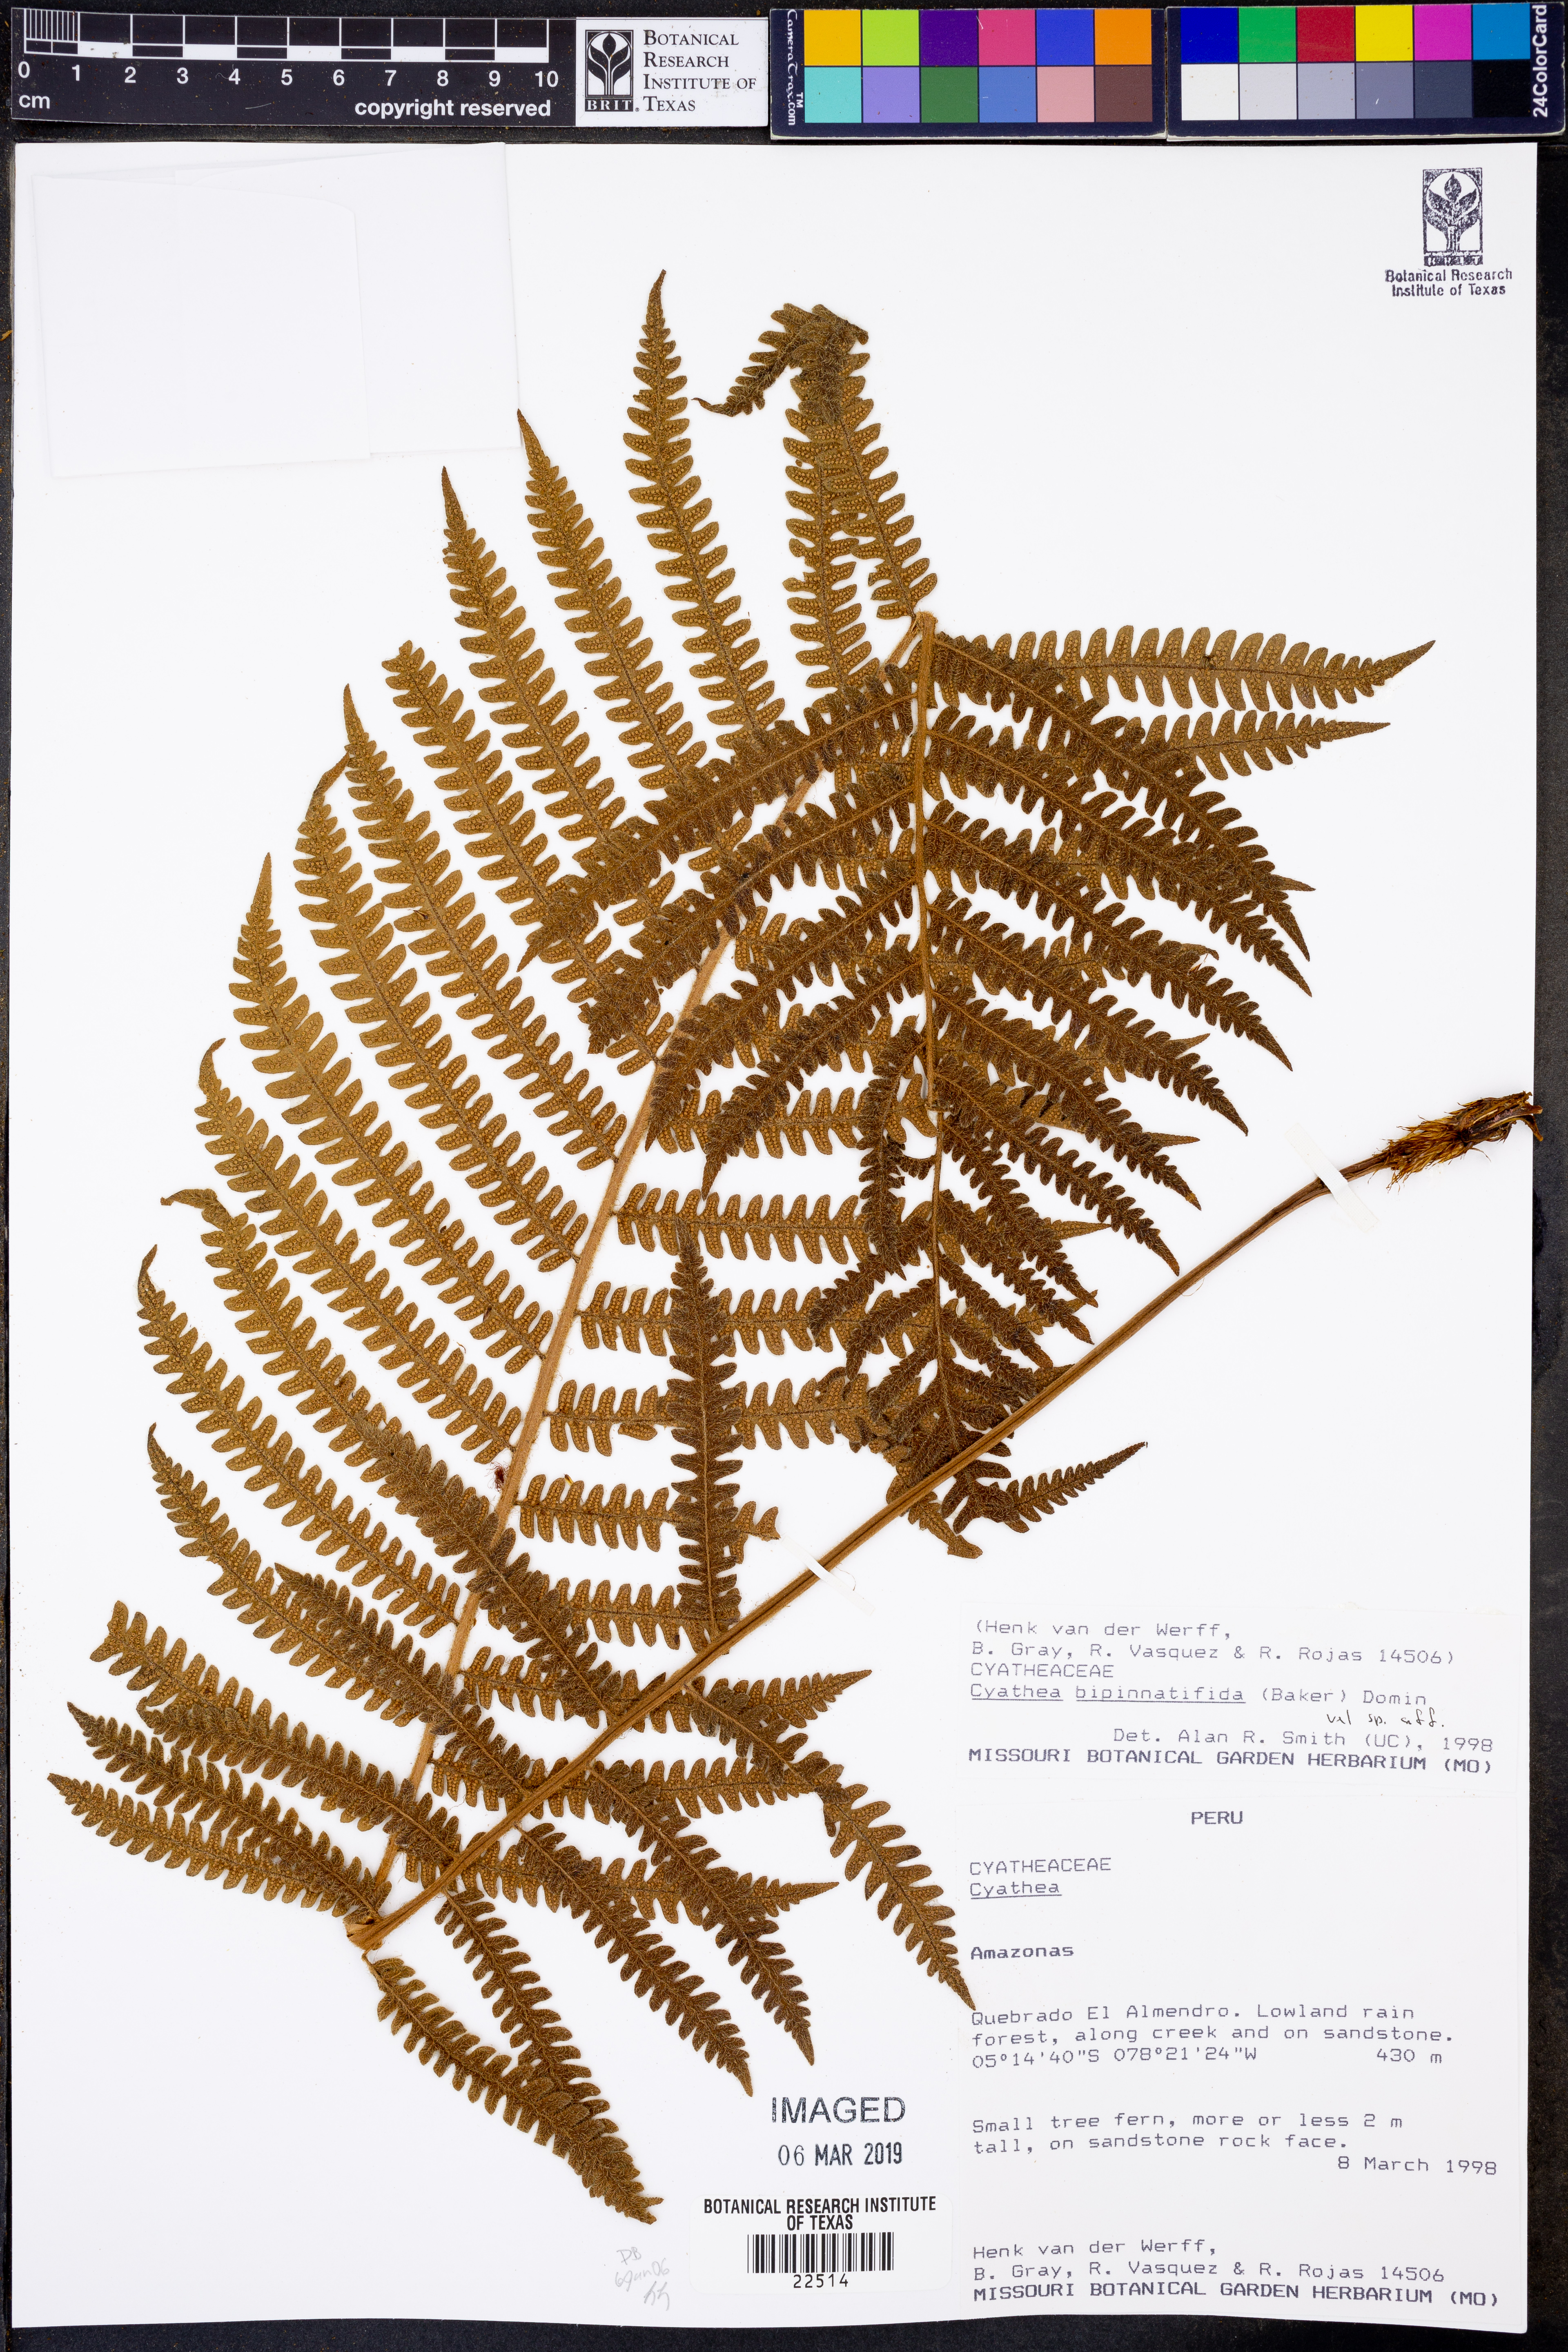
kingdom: Plantae
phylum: Tracheophyta
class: Polypodiopsida
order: Cyatheales
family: Cyatheaceae
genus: Cyathea
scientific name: Cyathea bipinnatifida
